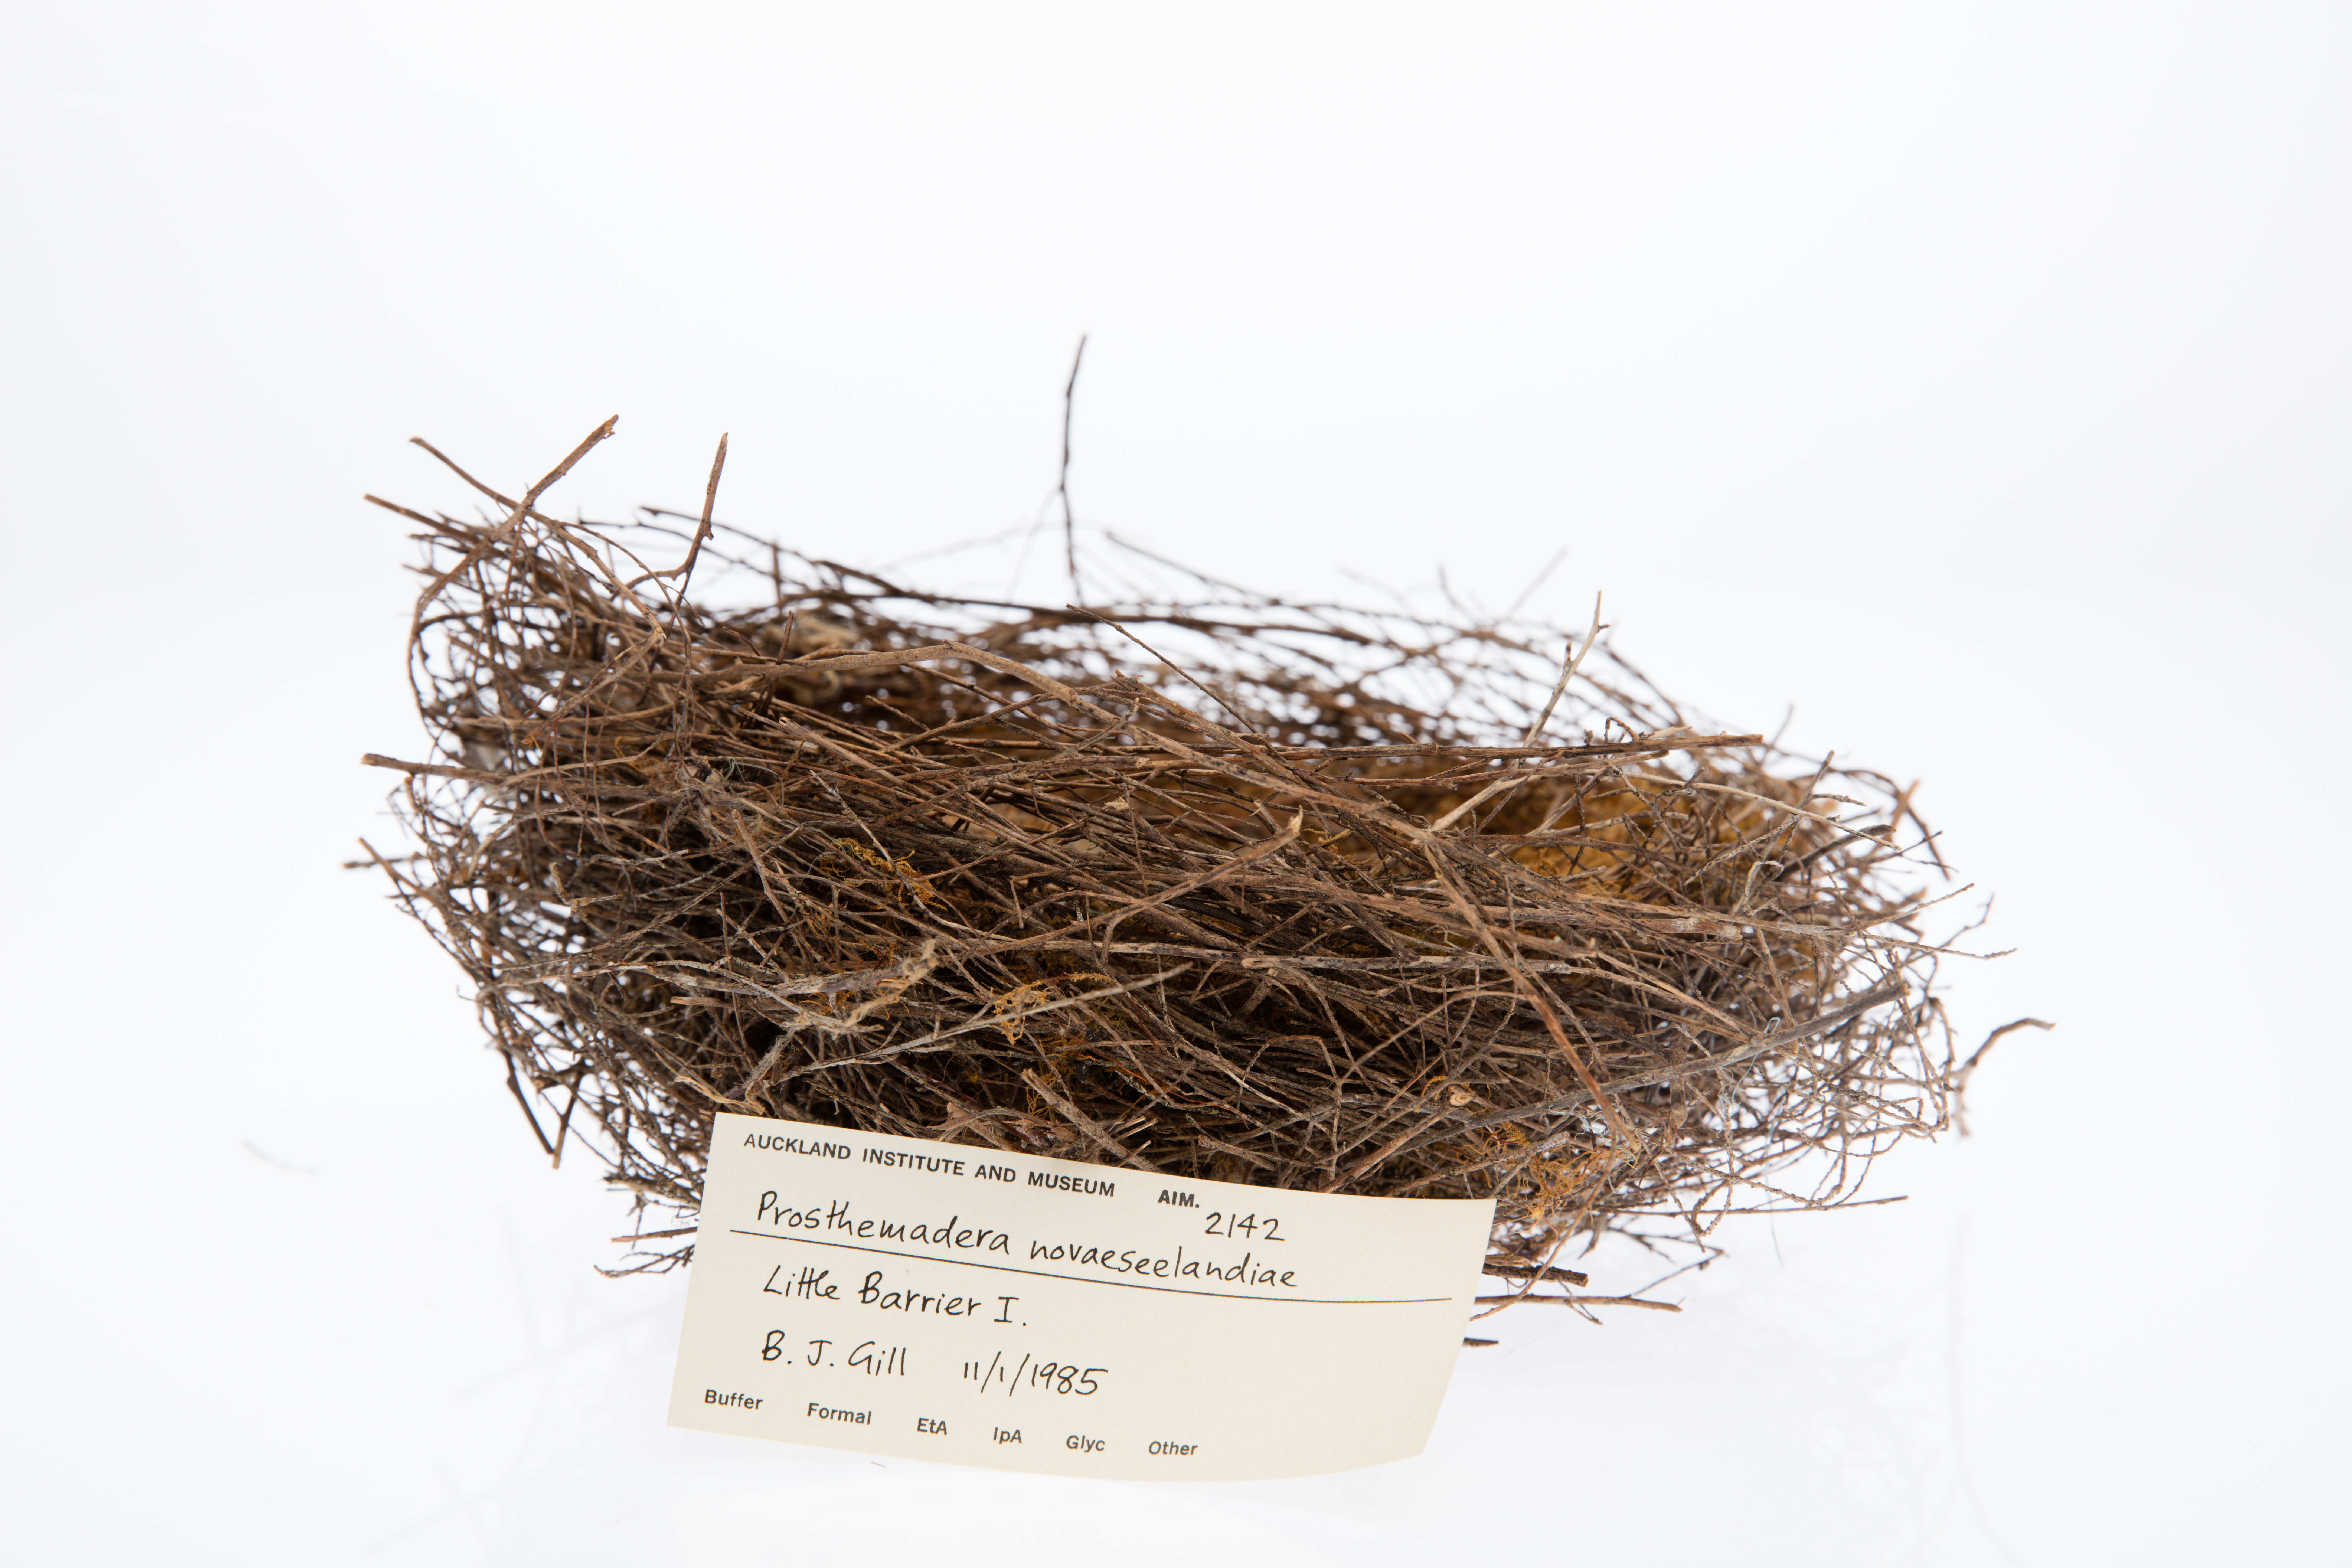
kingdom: Animalia
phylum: Chordata
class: Aves
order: Passeriformes
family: Meliphagidae
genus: Prosthemadera
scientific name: Prosthemadera novaeseelandiae
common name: Tui
